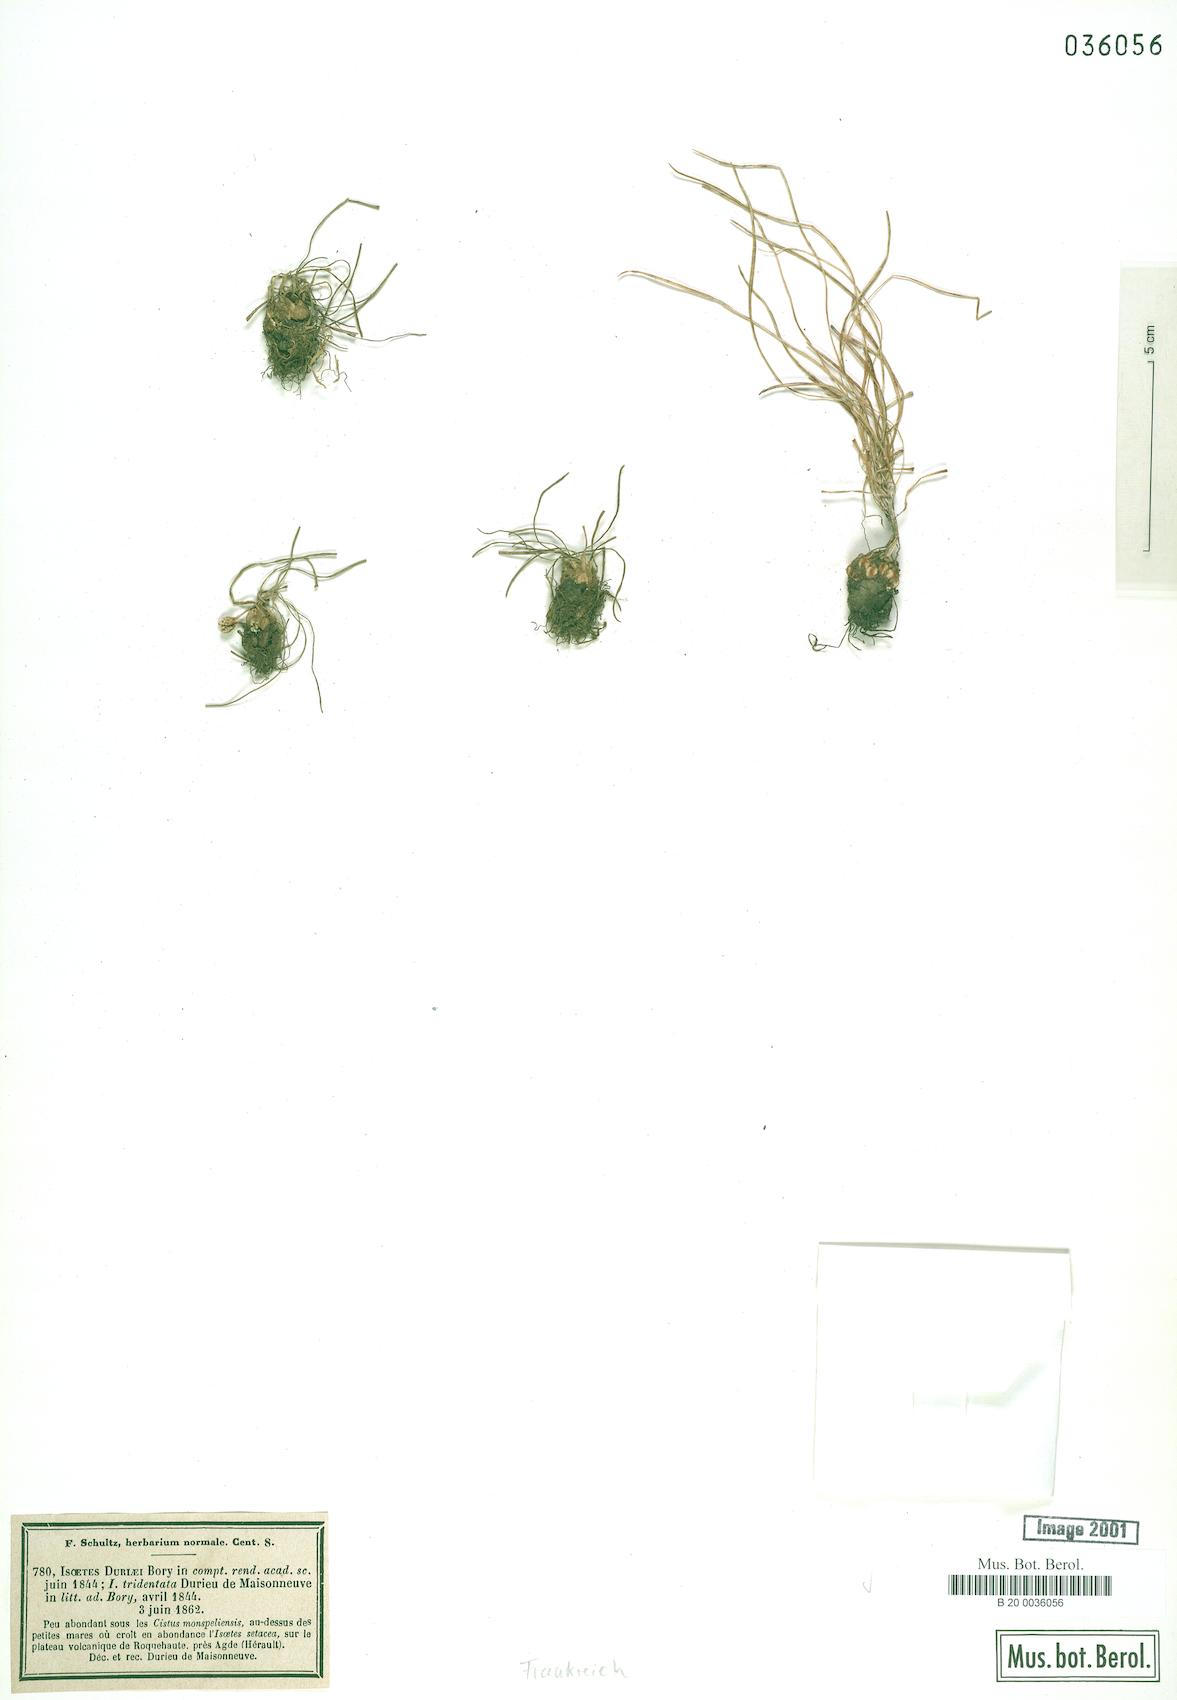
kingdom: Plantae
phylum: Tracheophyta
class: Lycopodiopsida
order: Isoetales
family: Isoetaceae
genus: Isoetes
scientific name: Isoetes duriei
